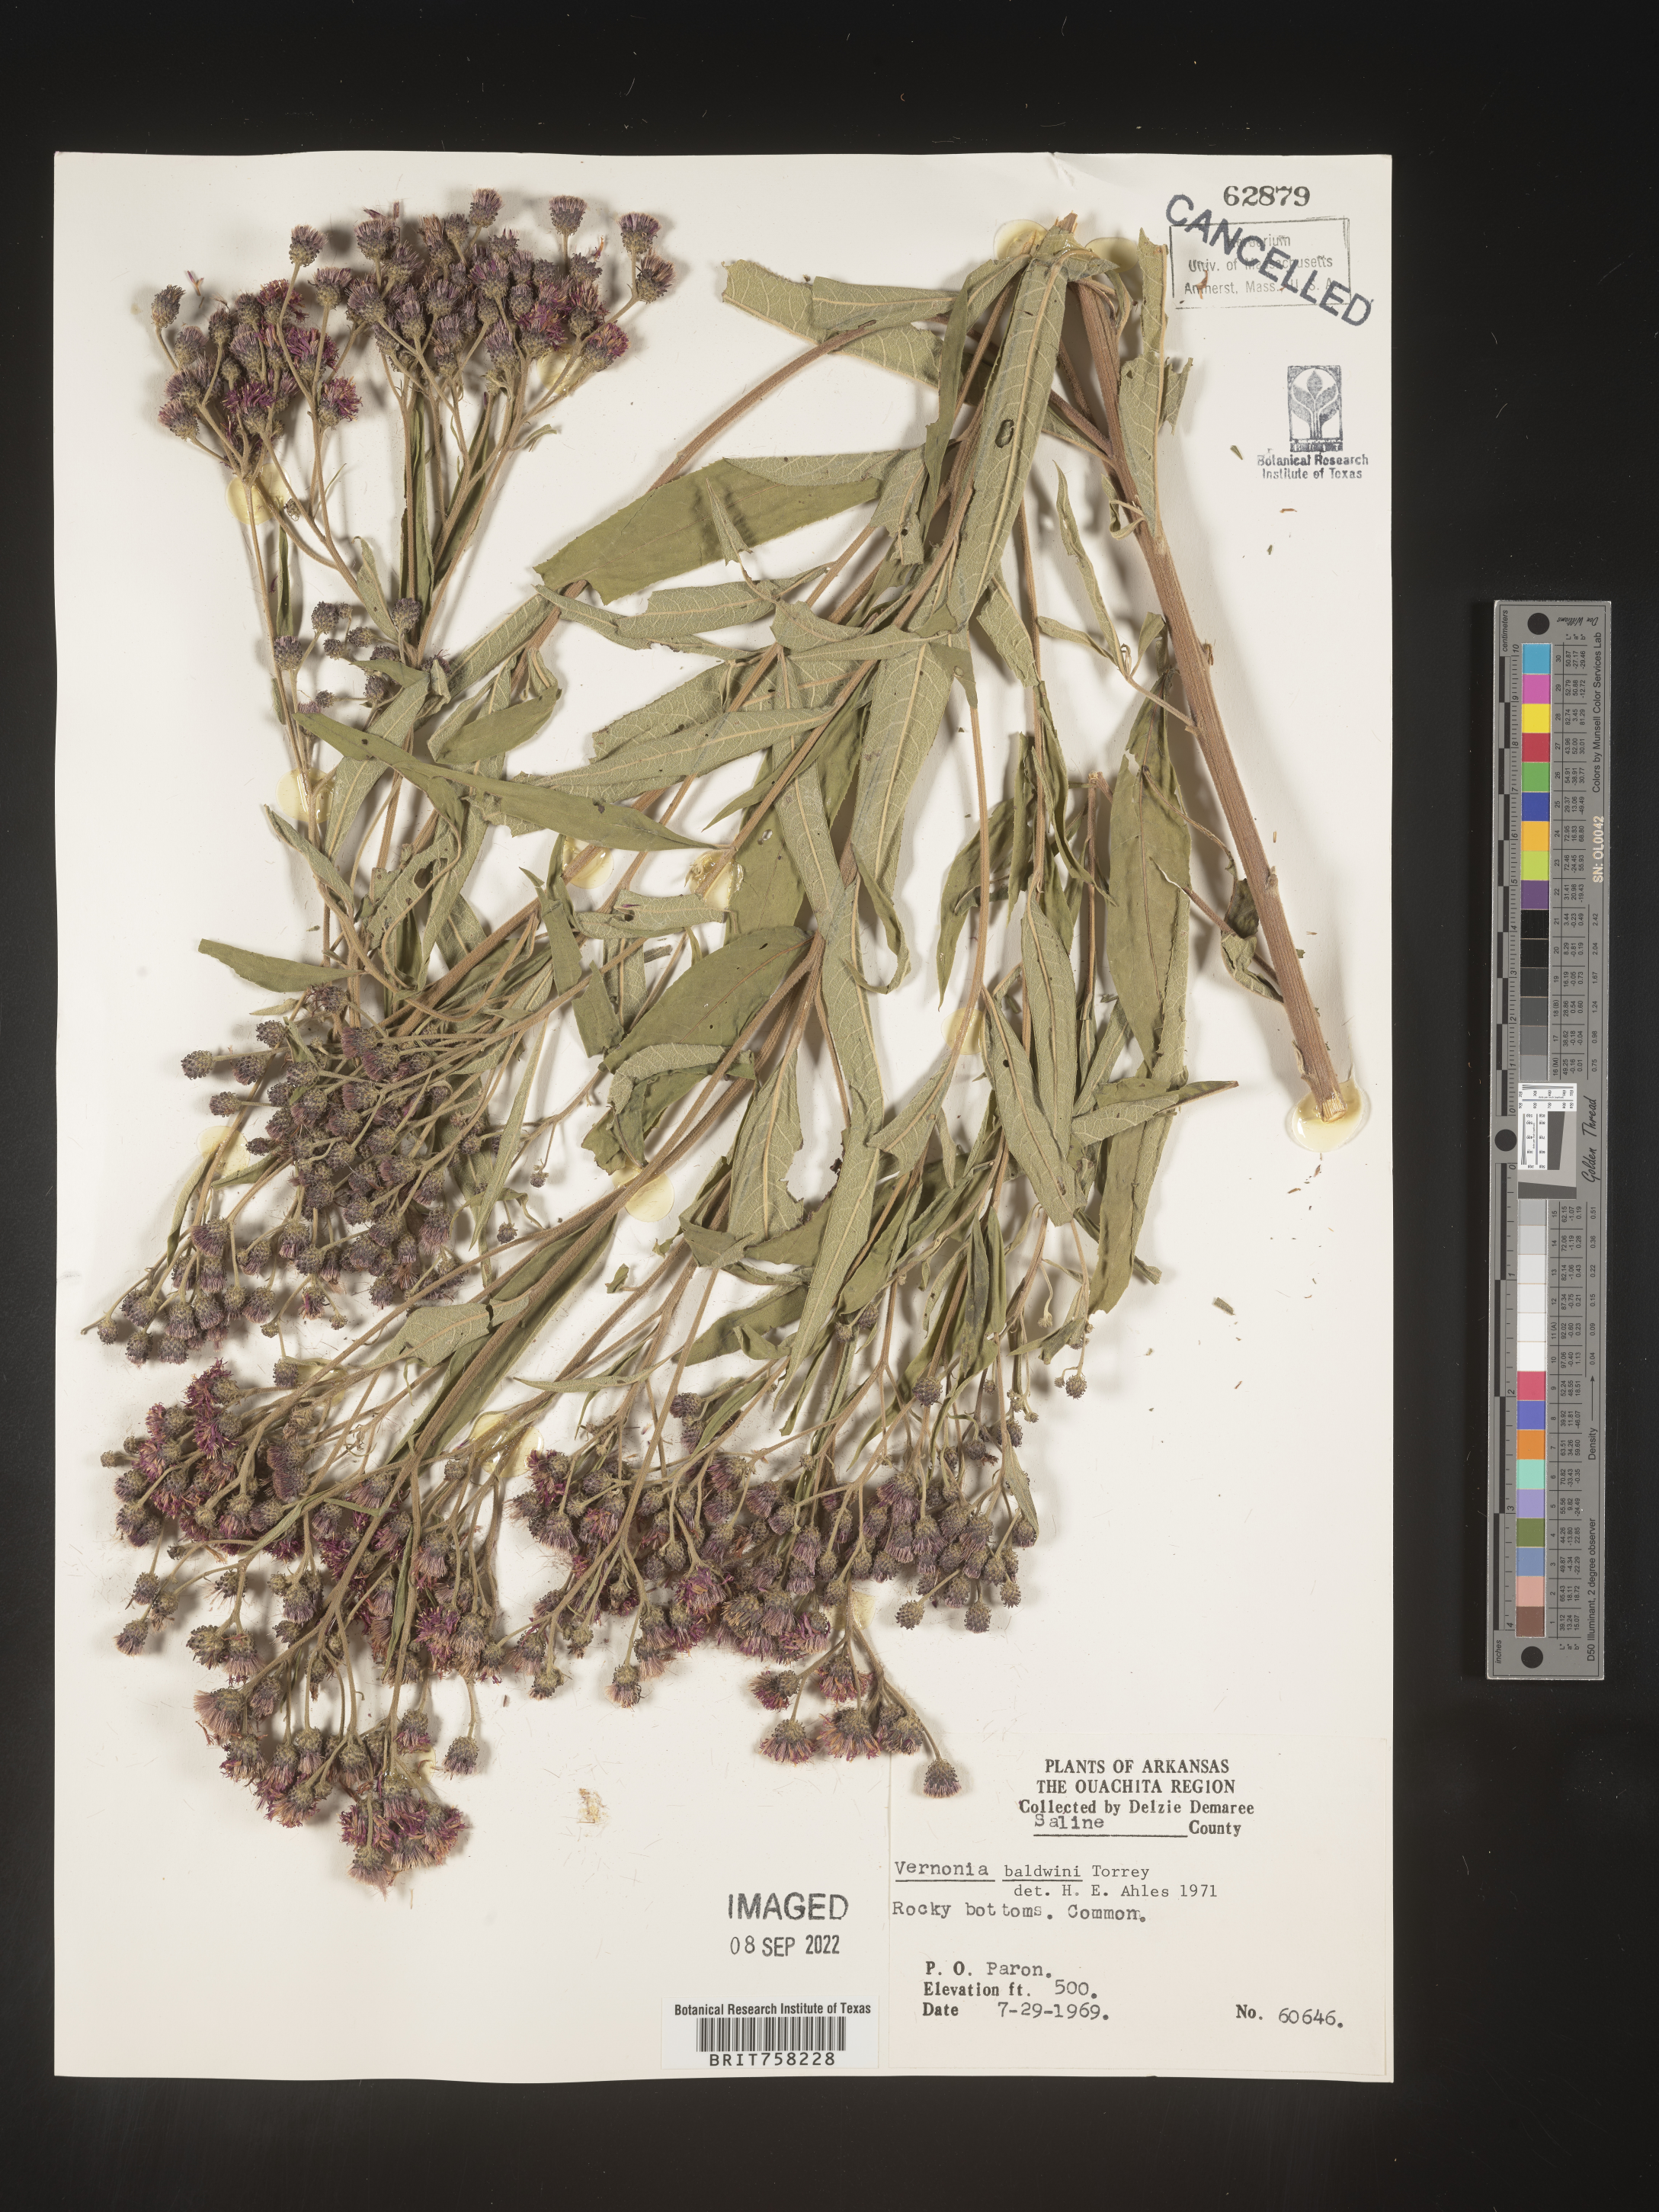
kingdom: Plantae
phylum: Tracheophyta
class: Magnoliopsida
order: Asterales
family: Asteraceae
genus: Vernonia
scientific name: Vernonia baldwinii
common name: Western ironweed
